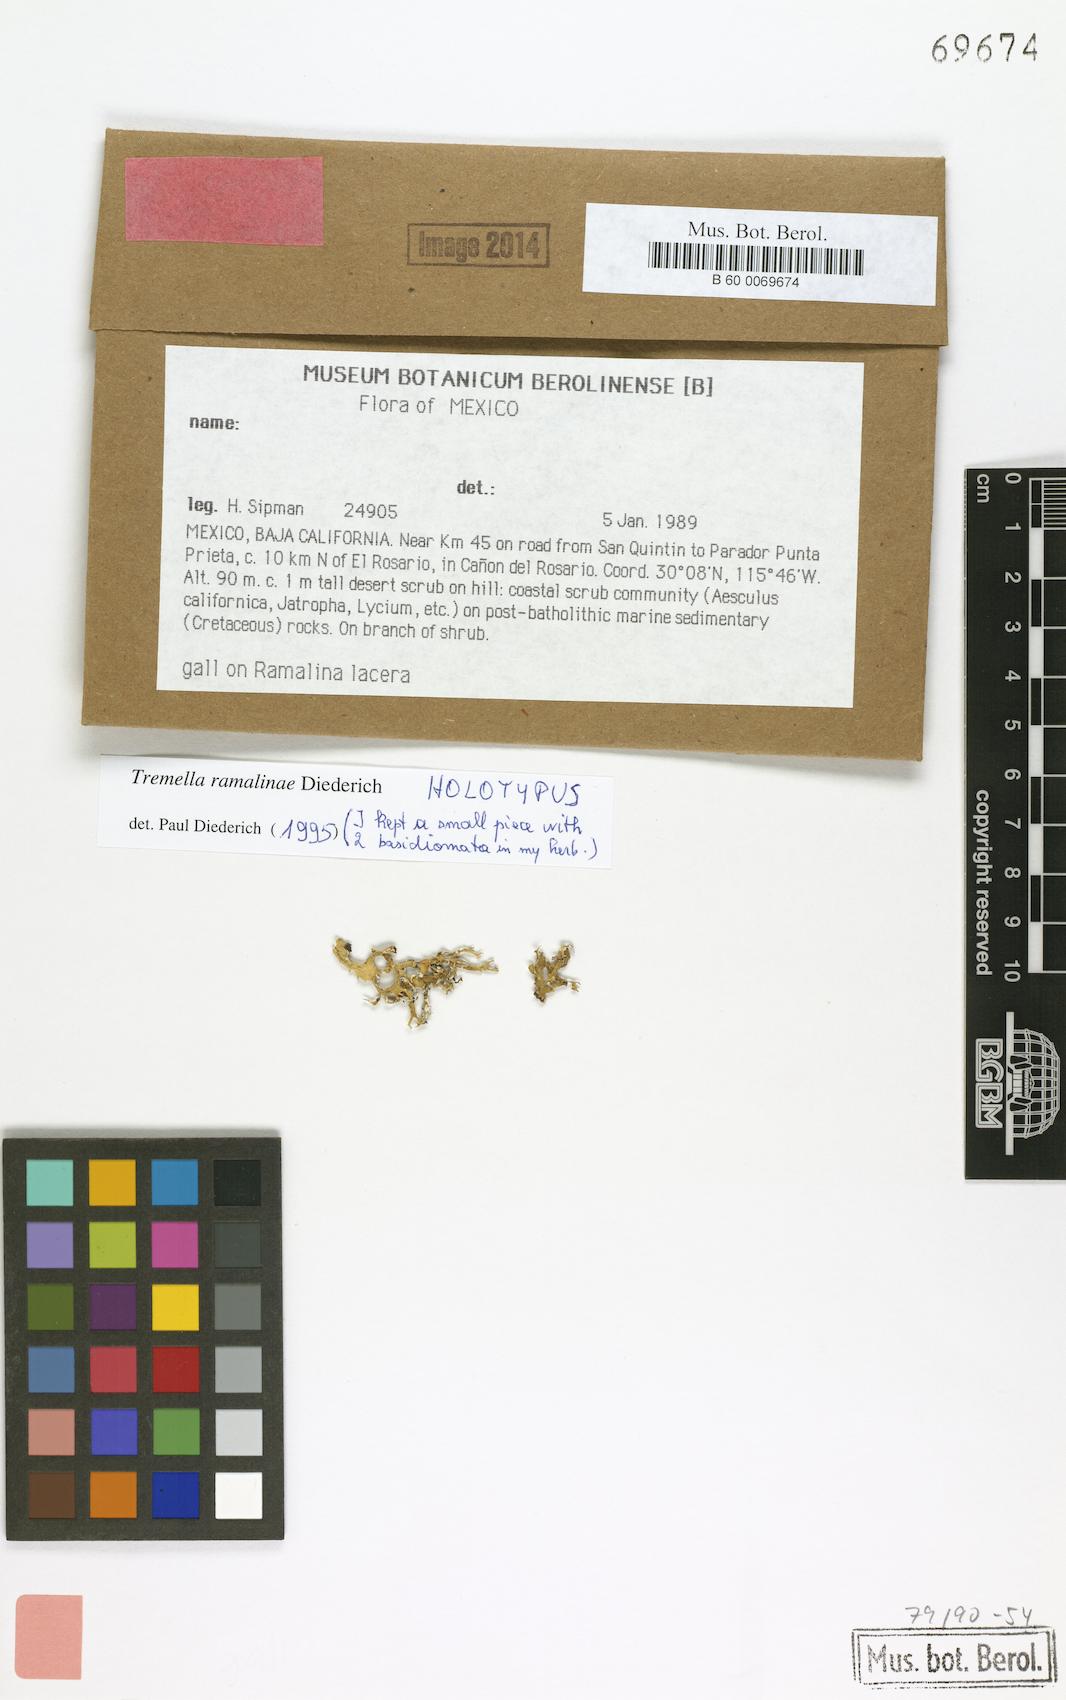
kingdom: Fungi
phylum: Basidiomycota
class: Tremellomycetes
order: Tremellales
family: Tremellaceae
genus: Tremella
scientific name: Tremella ramalinae
